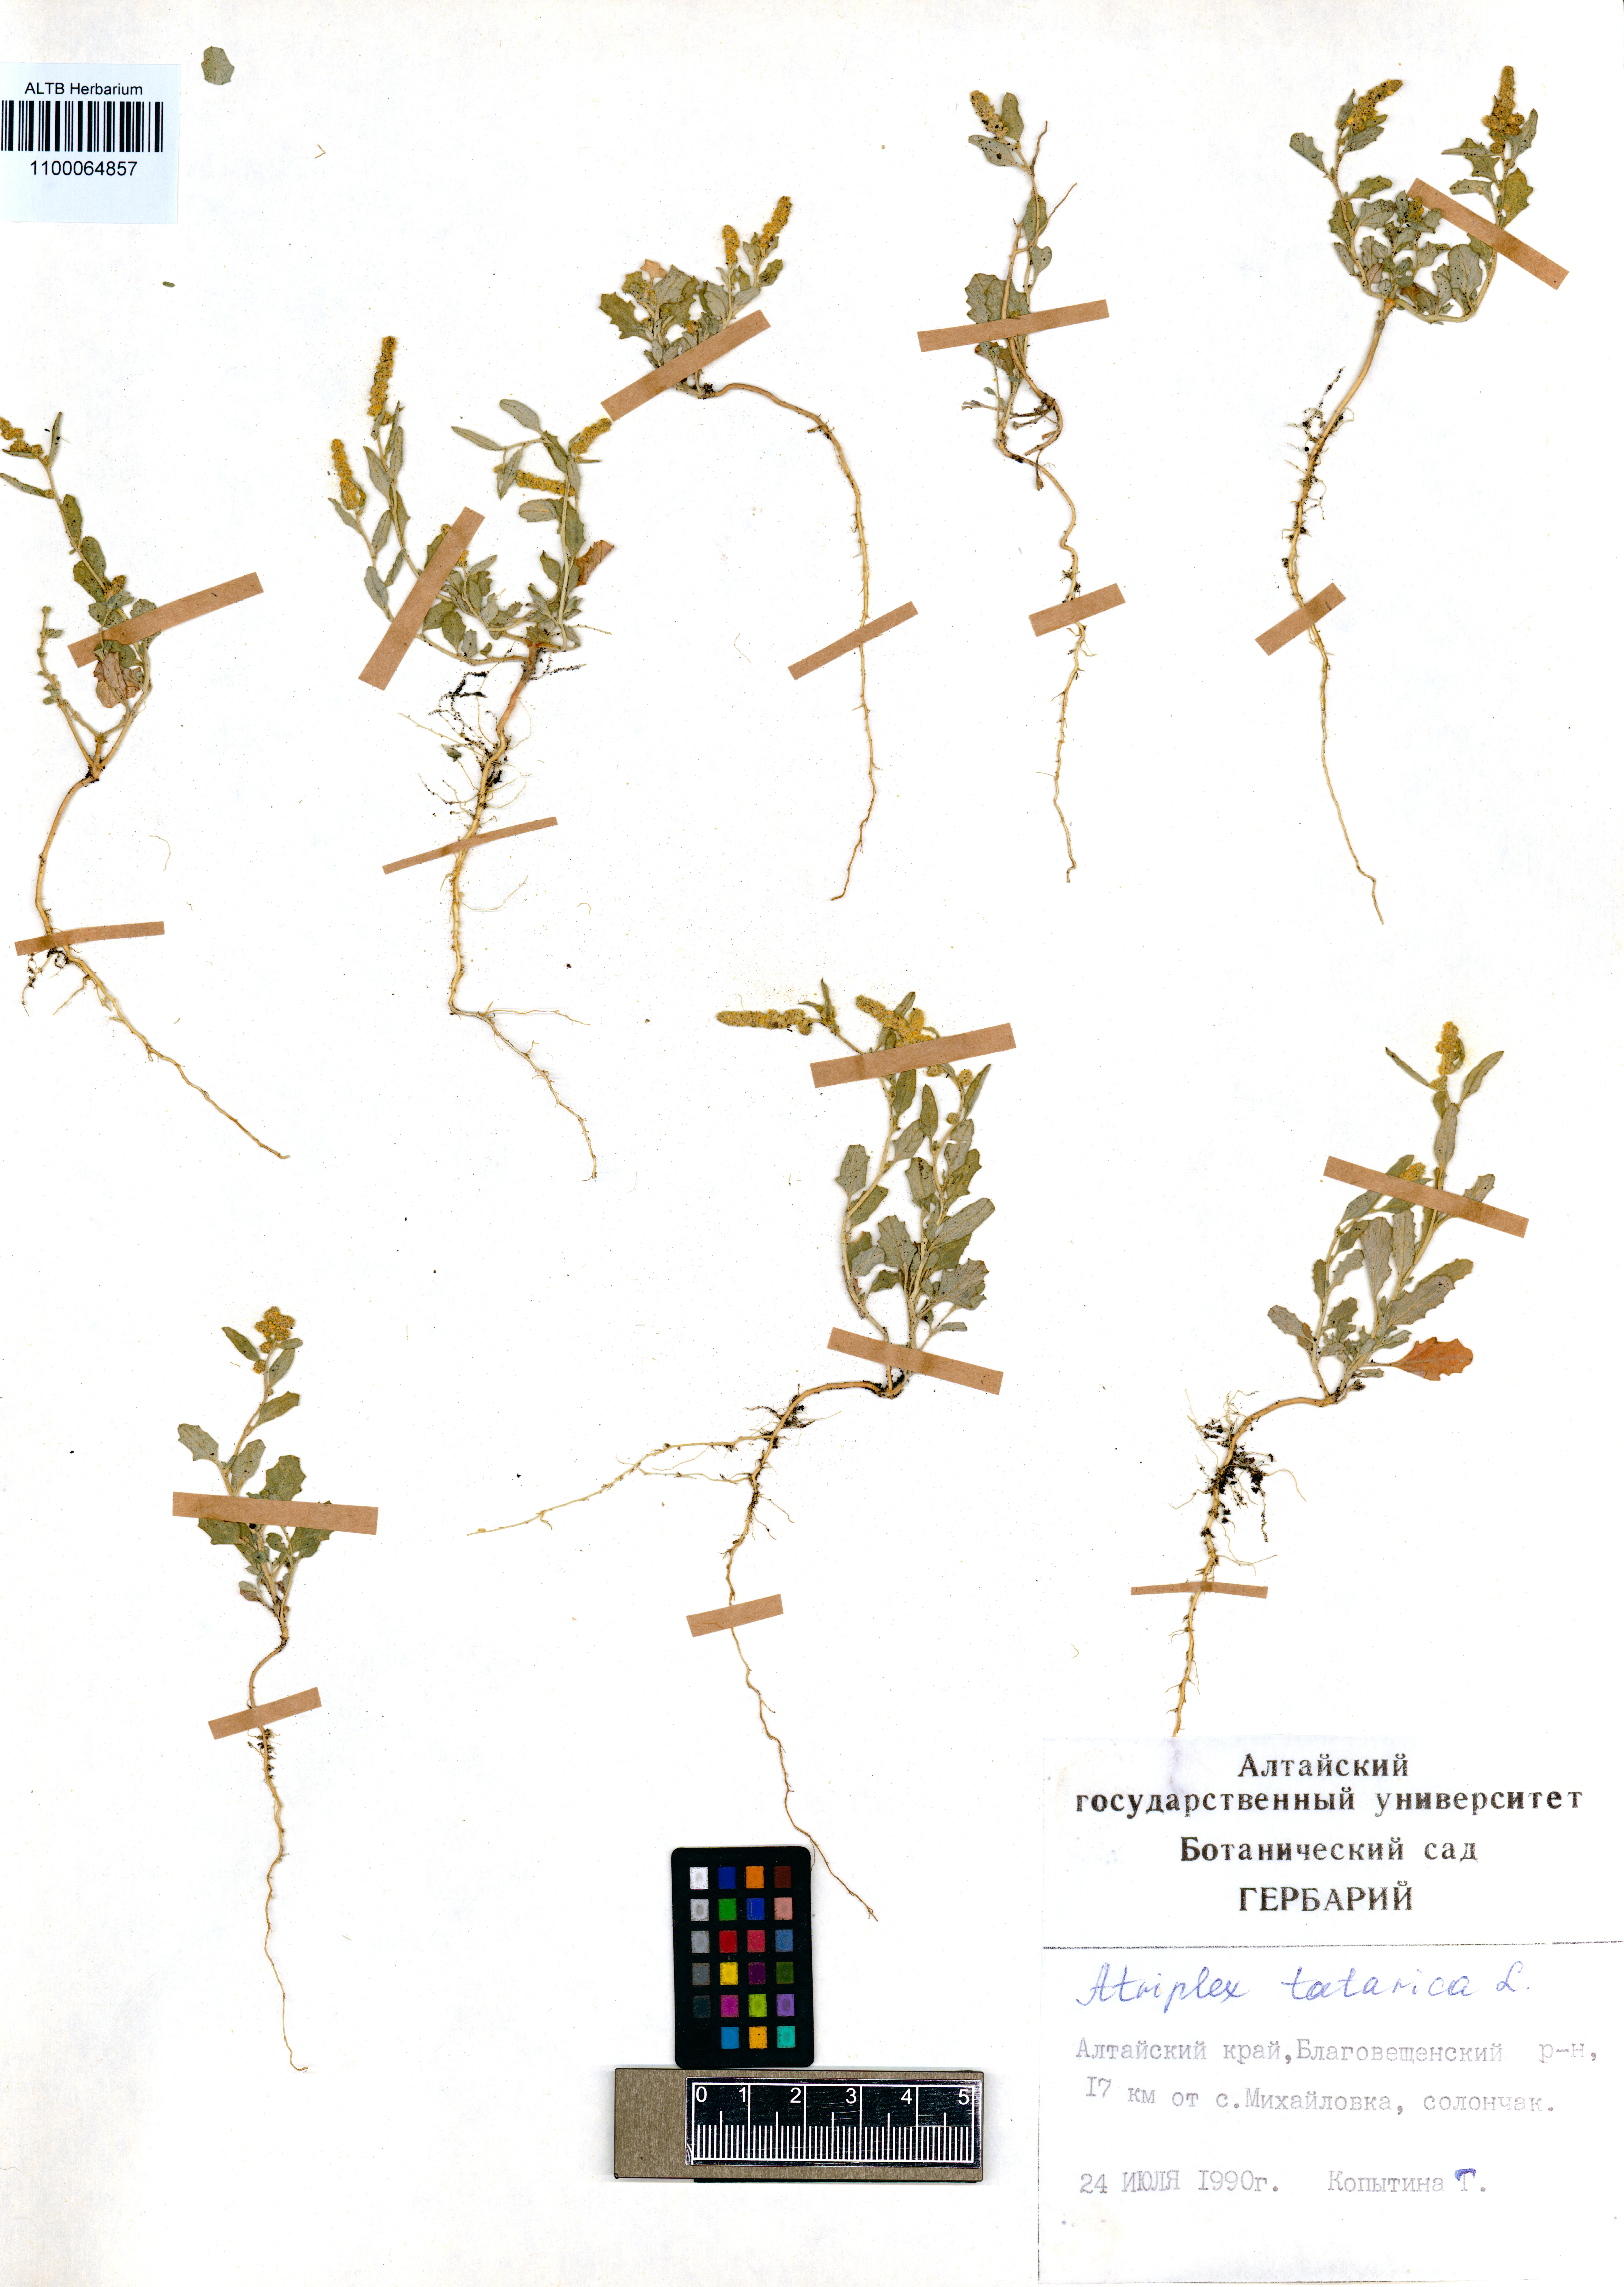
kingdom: Plantae
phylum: Tracheophyta
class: Magnoliopsida
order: Caryophyllales
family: Amaranthaceae
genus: Atriplex
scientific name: Atriplex tatarica
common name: Tatarian orache
